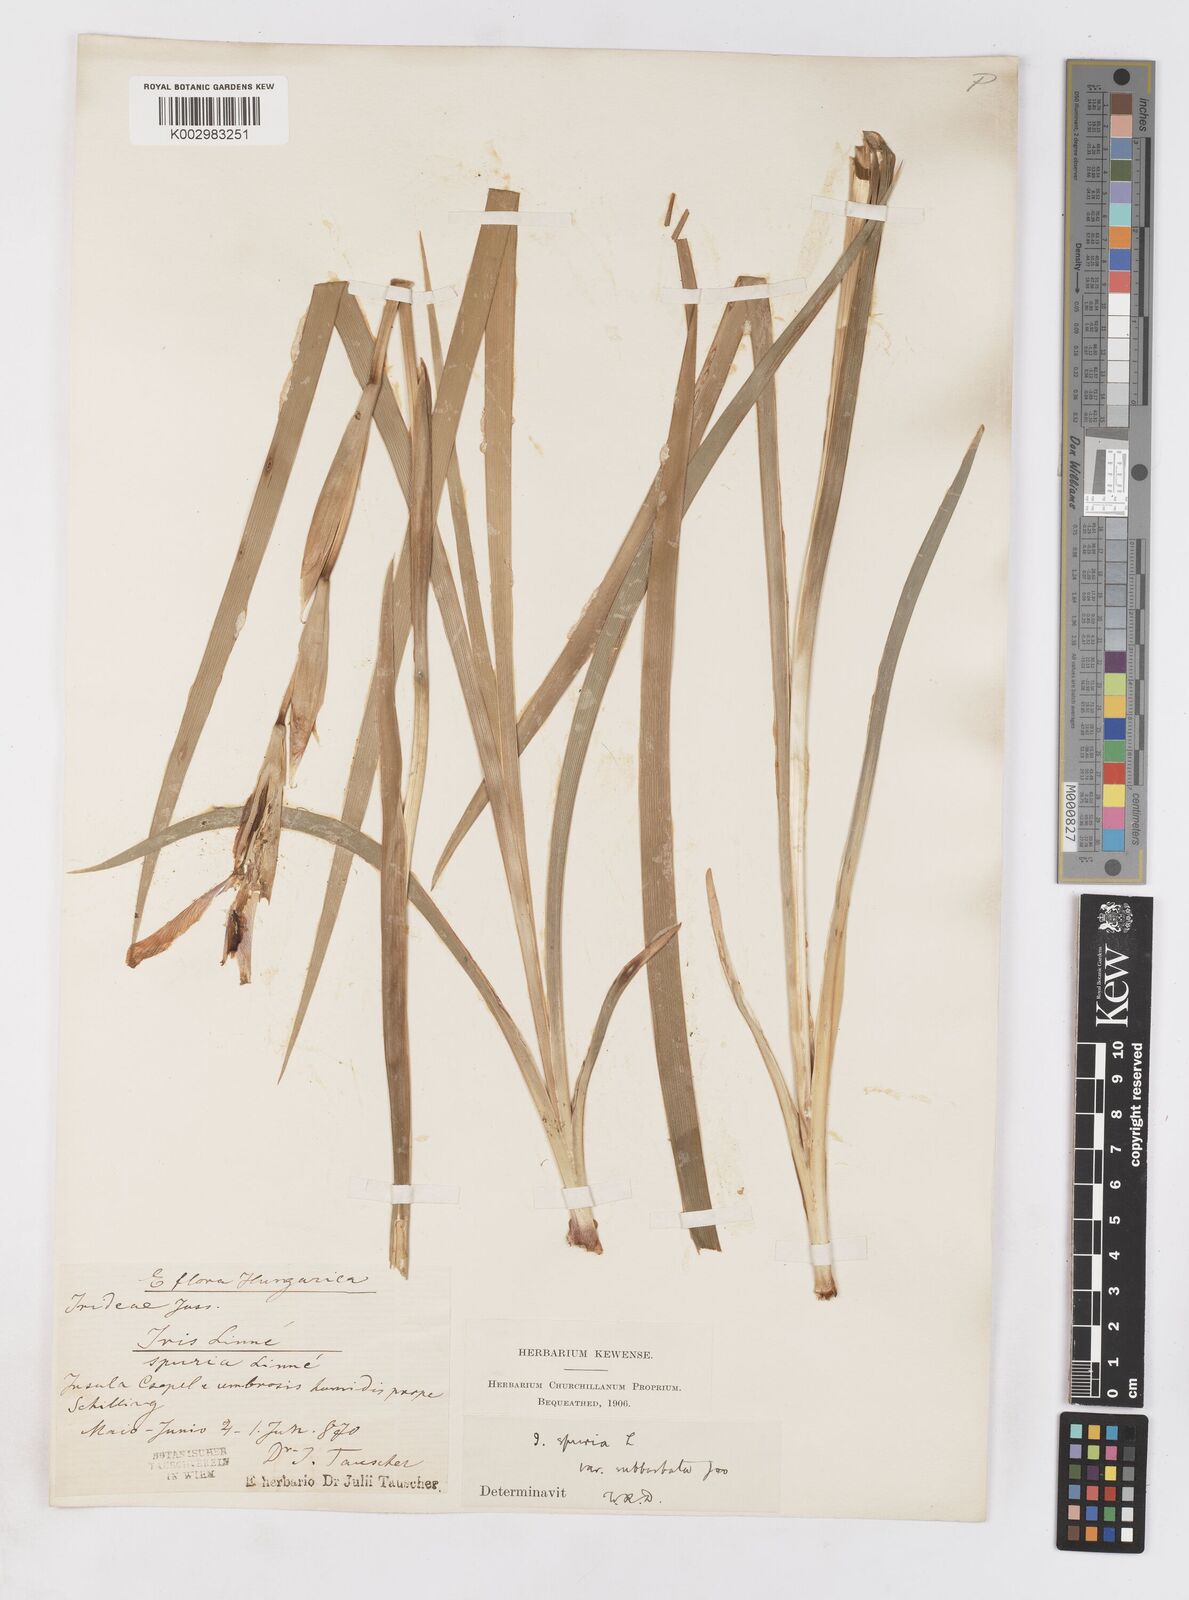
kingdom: Plantae
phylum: Tracheophyta
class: Liliopsida
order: Asparagales
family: Iridaceae
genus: Iris
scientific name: Iris spuria
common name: Blue iris
